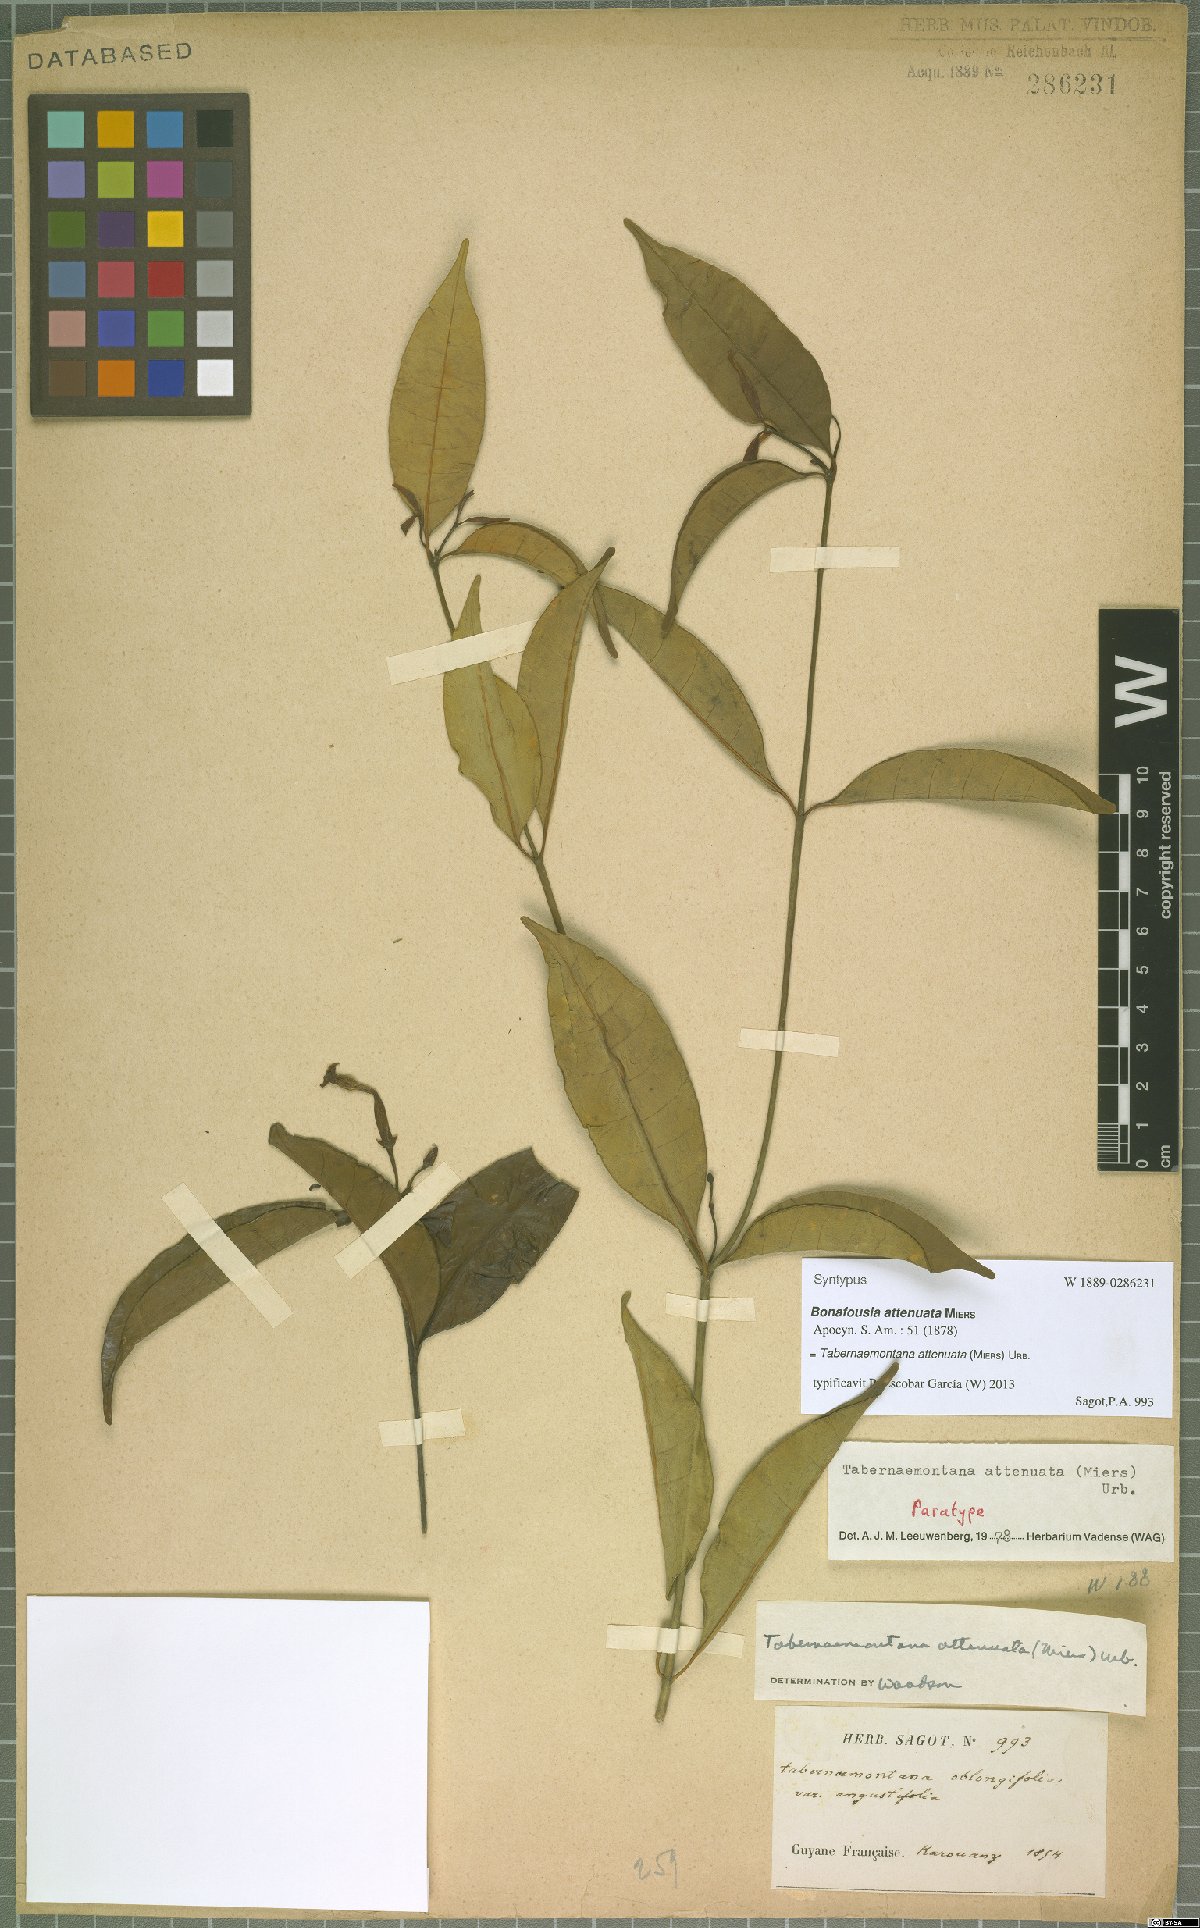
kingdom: Plantae
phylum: Tracheophyta
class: Magnoliopsida
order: Gentianales
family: Apocynaceae
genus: Tabernaemontana
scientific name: Tabernaemontana attenuata
